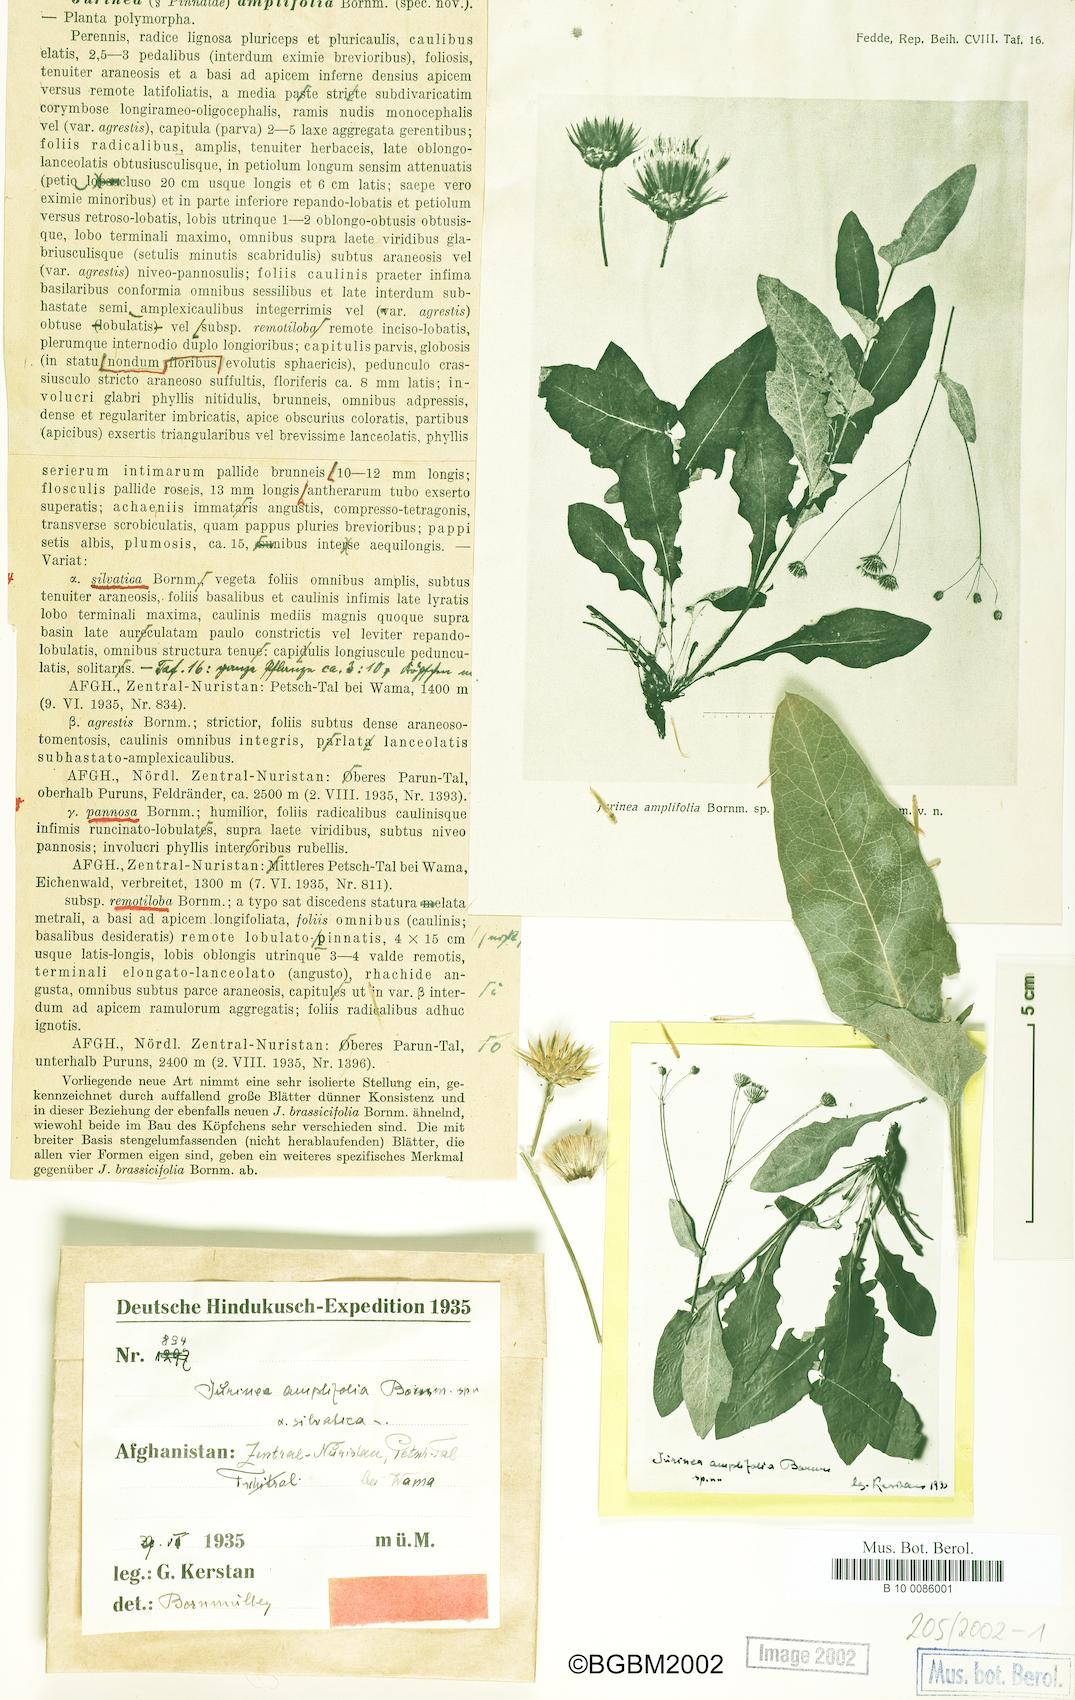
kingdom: Plantae
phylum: Tracheophyta
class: Magnoliopsida
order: Asterales
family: Asteraceae
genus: Jurinea
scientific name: Jurinea chitralica
